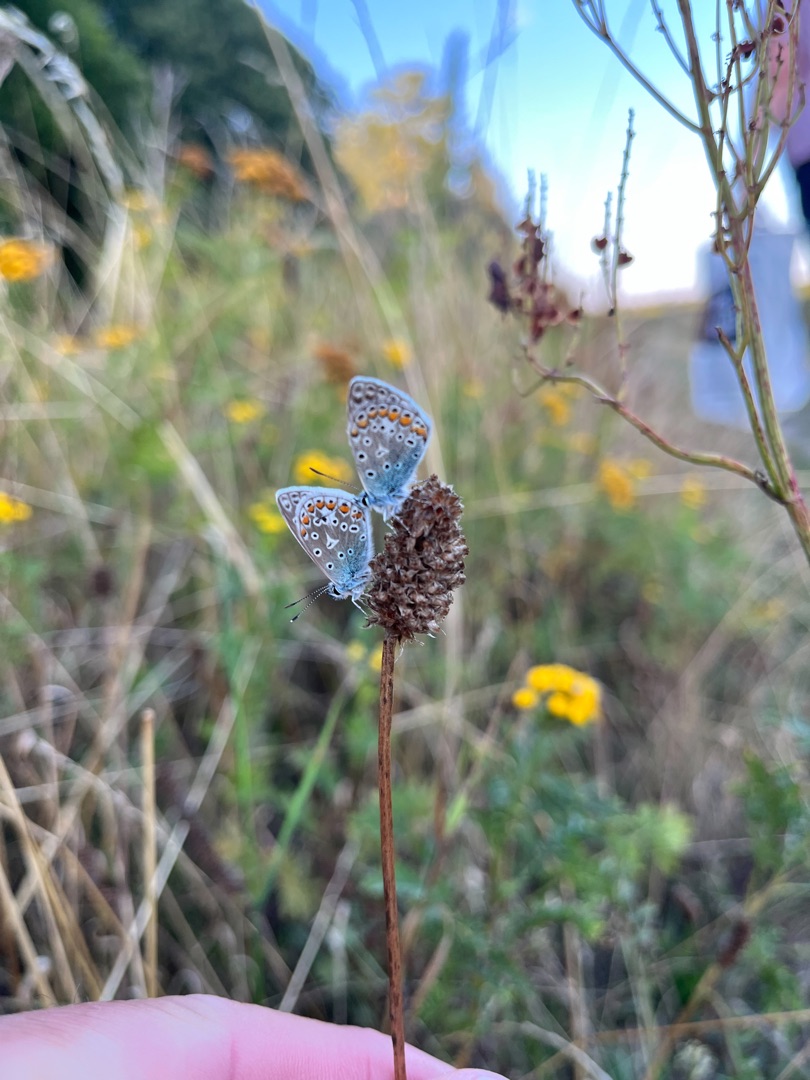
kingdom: Animalia
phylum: Arthropoda
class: Insecta
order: Lepidoptera
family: Lycaenidae
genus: Polyommatus
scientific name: Polyommatus icarus
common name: Almindelig blåfugl
